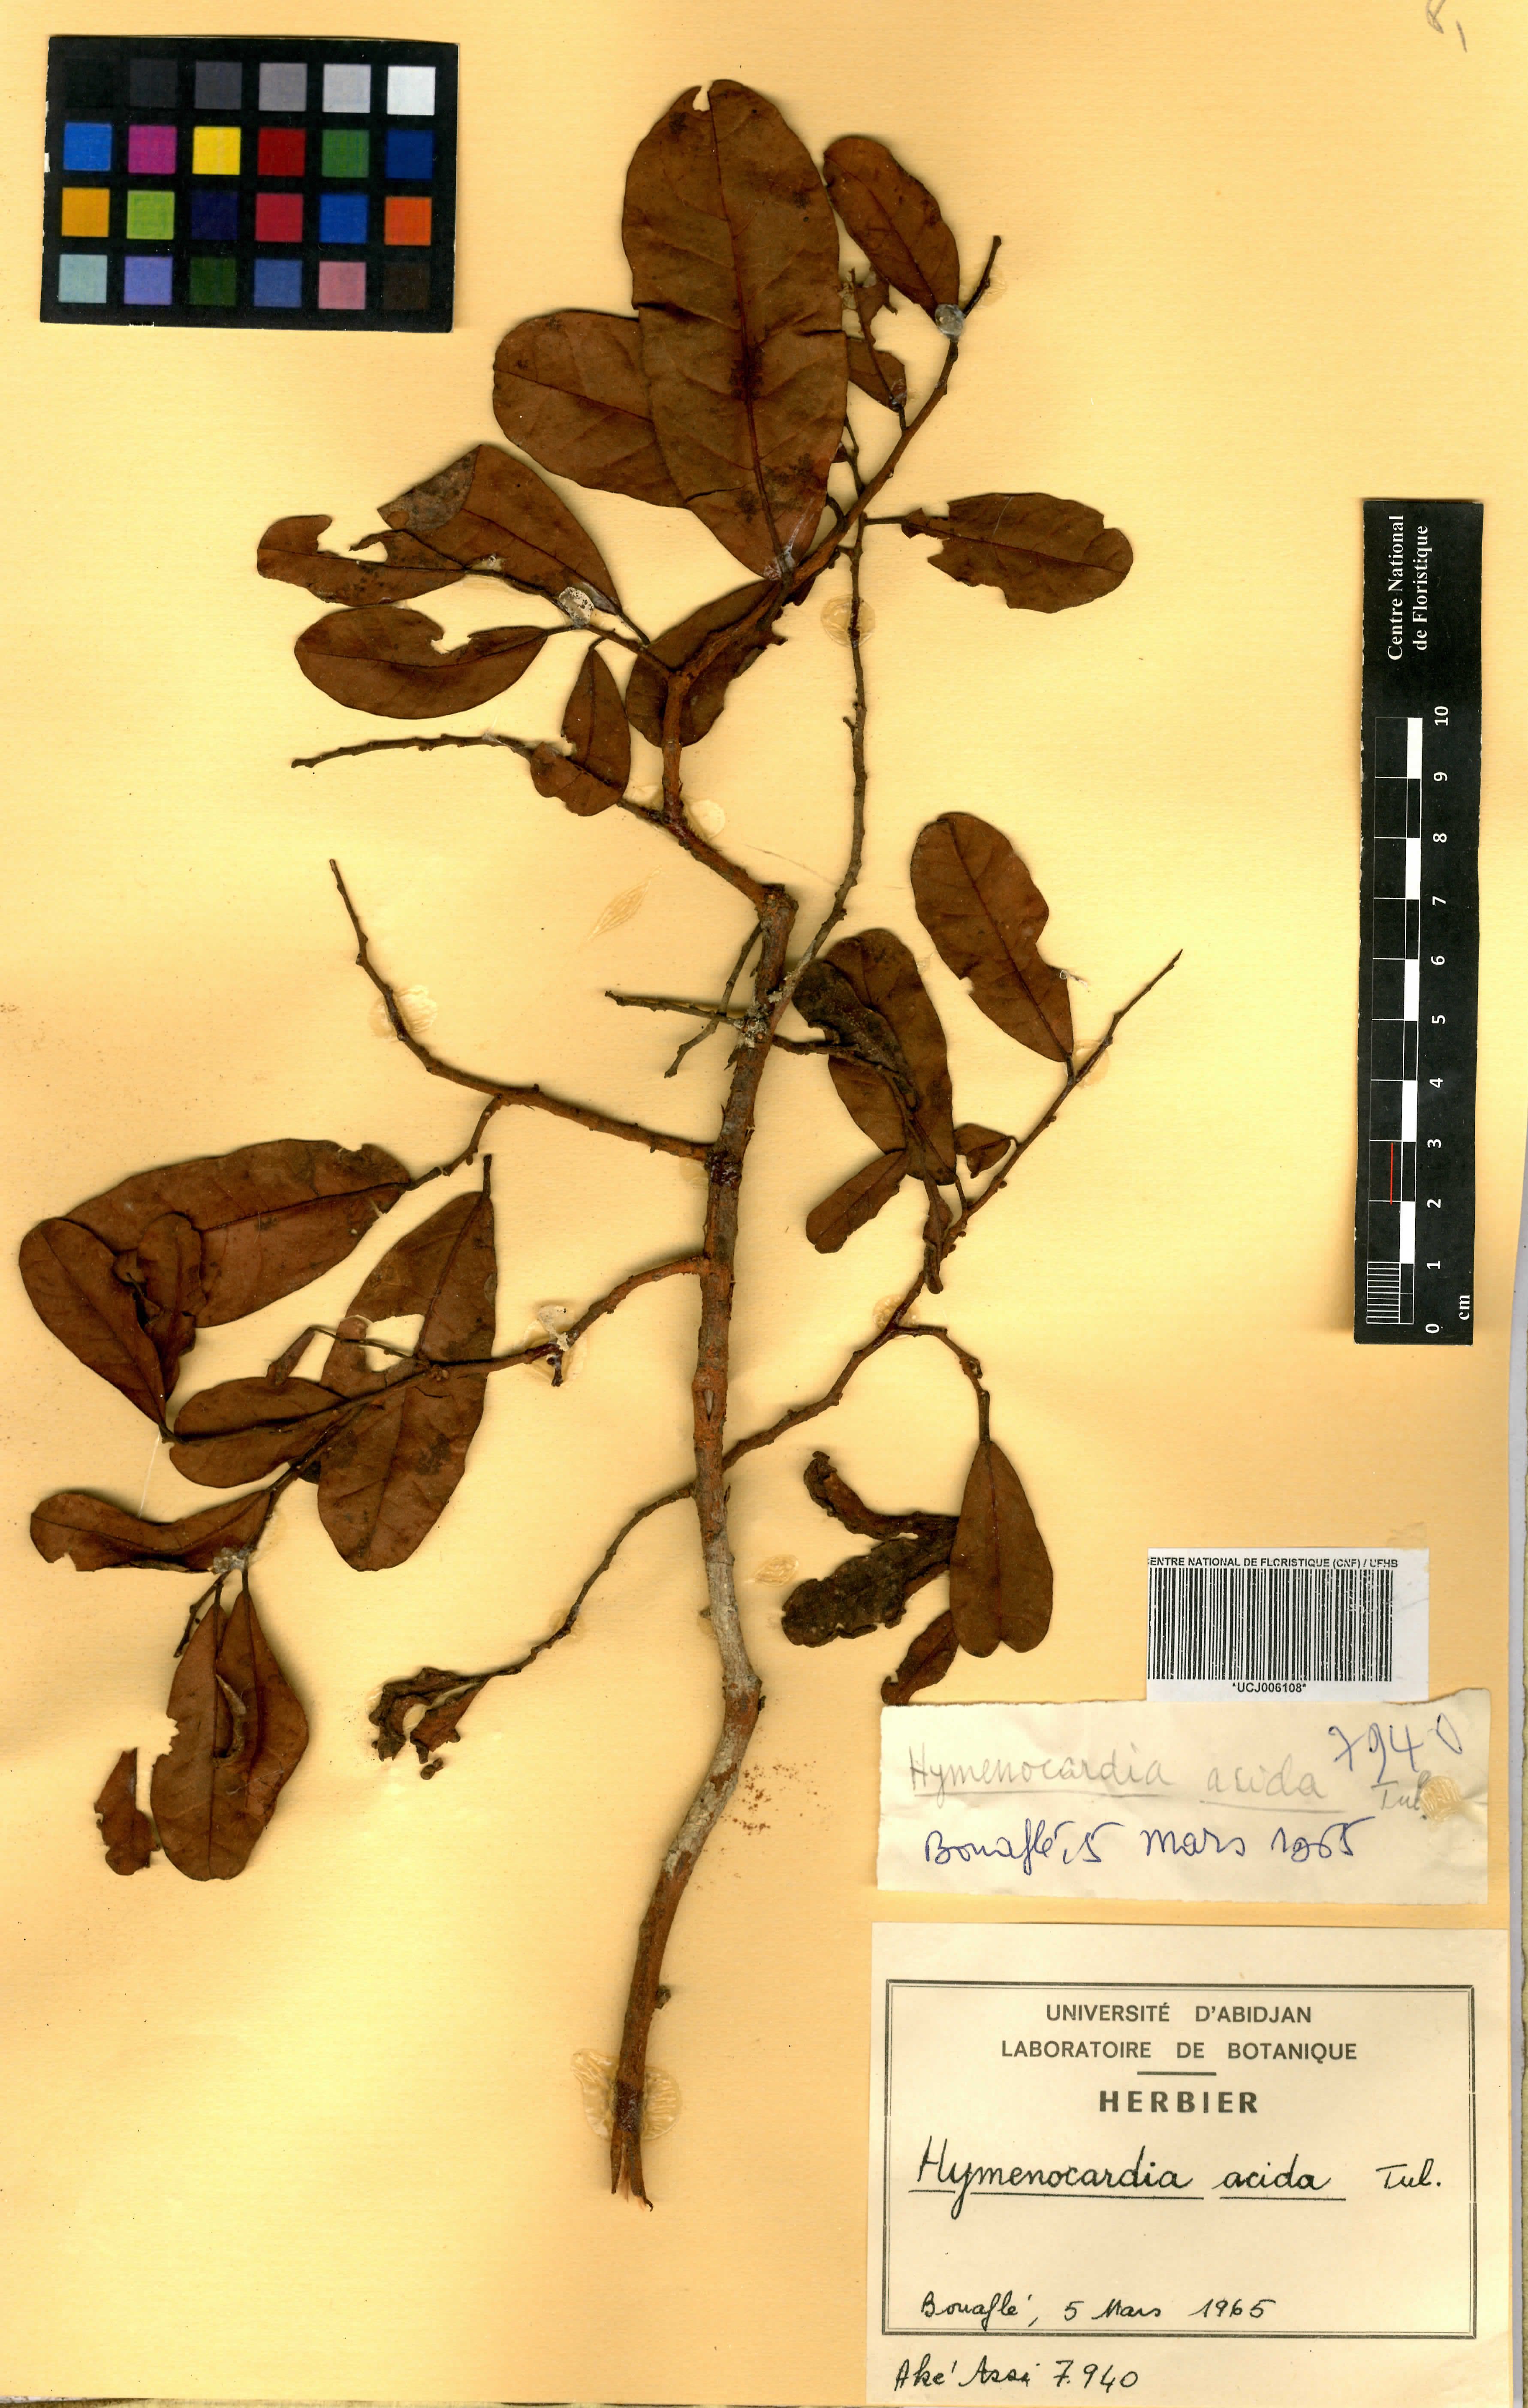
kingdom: Plantae
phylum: Tracheophyta
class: Magnoliopsida
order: Malpighiales
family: Phyllanthaceae
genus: Hymenocardia
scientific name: Hymenocardia acida
